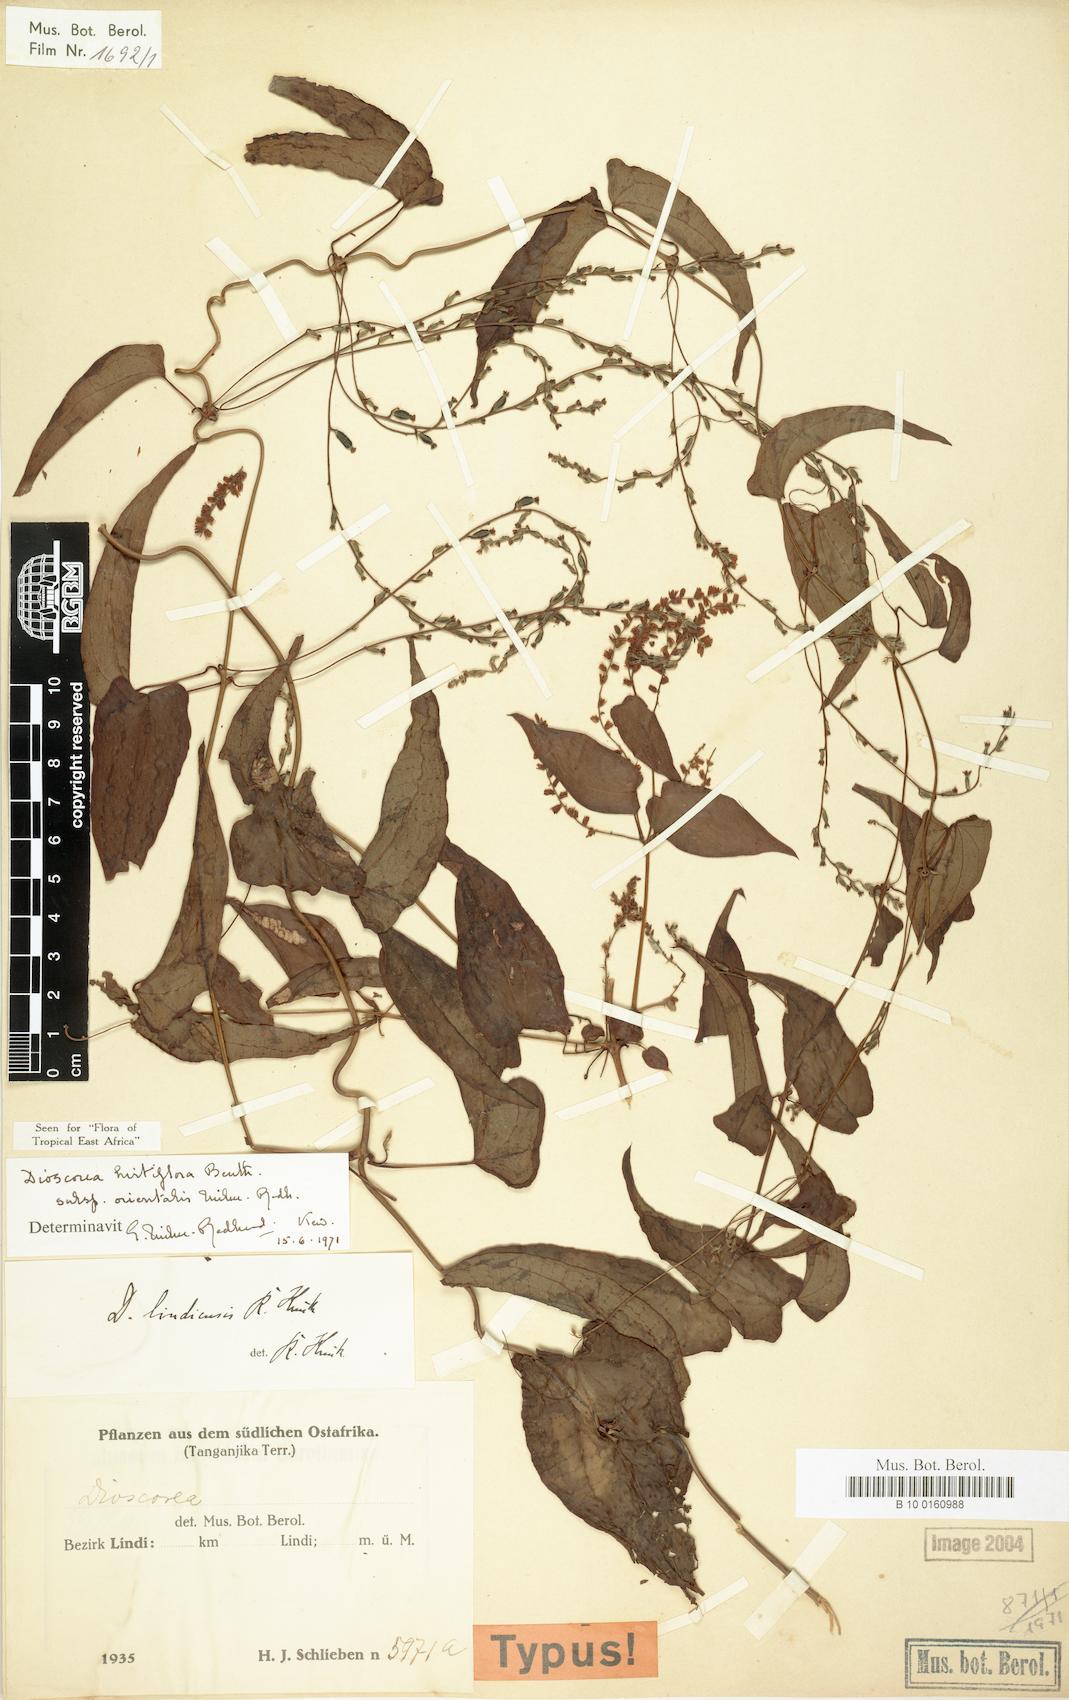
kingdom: Plantae
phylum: Tracheophyta
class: Liliopsida
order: Dioscoreales
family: Dioscoreaceae
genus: Dioscorea
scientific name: Dioscorea hirtiflora
